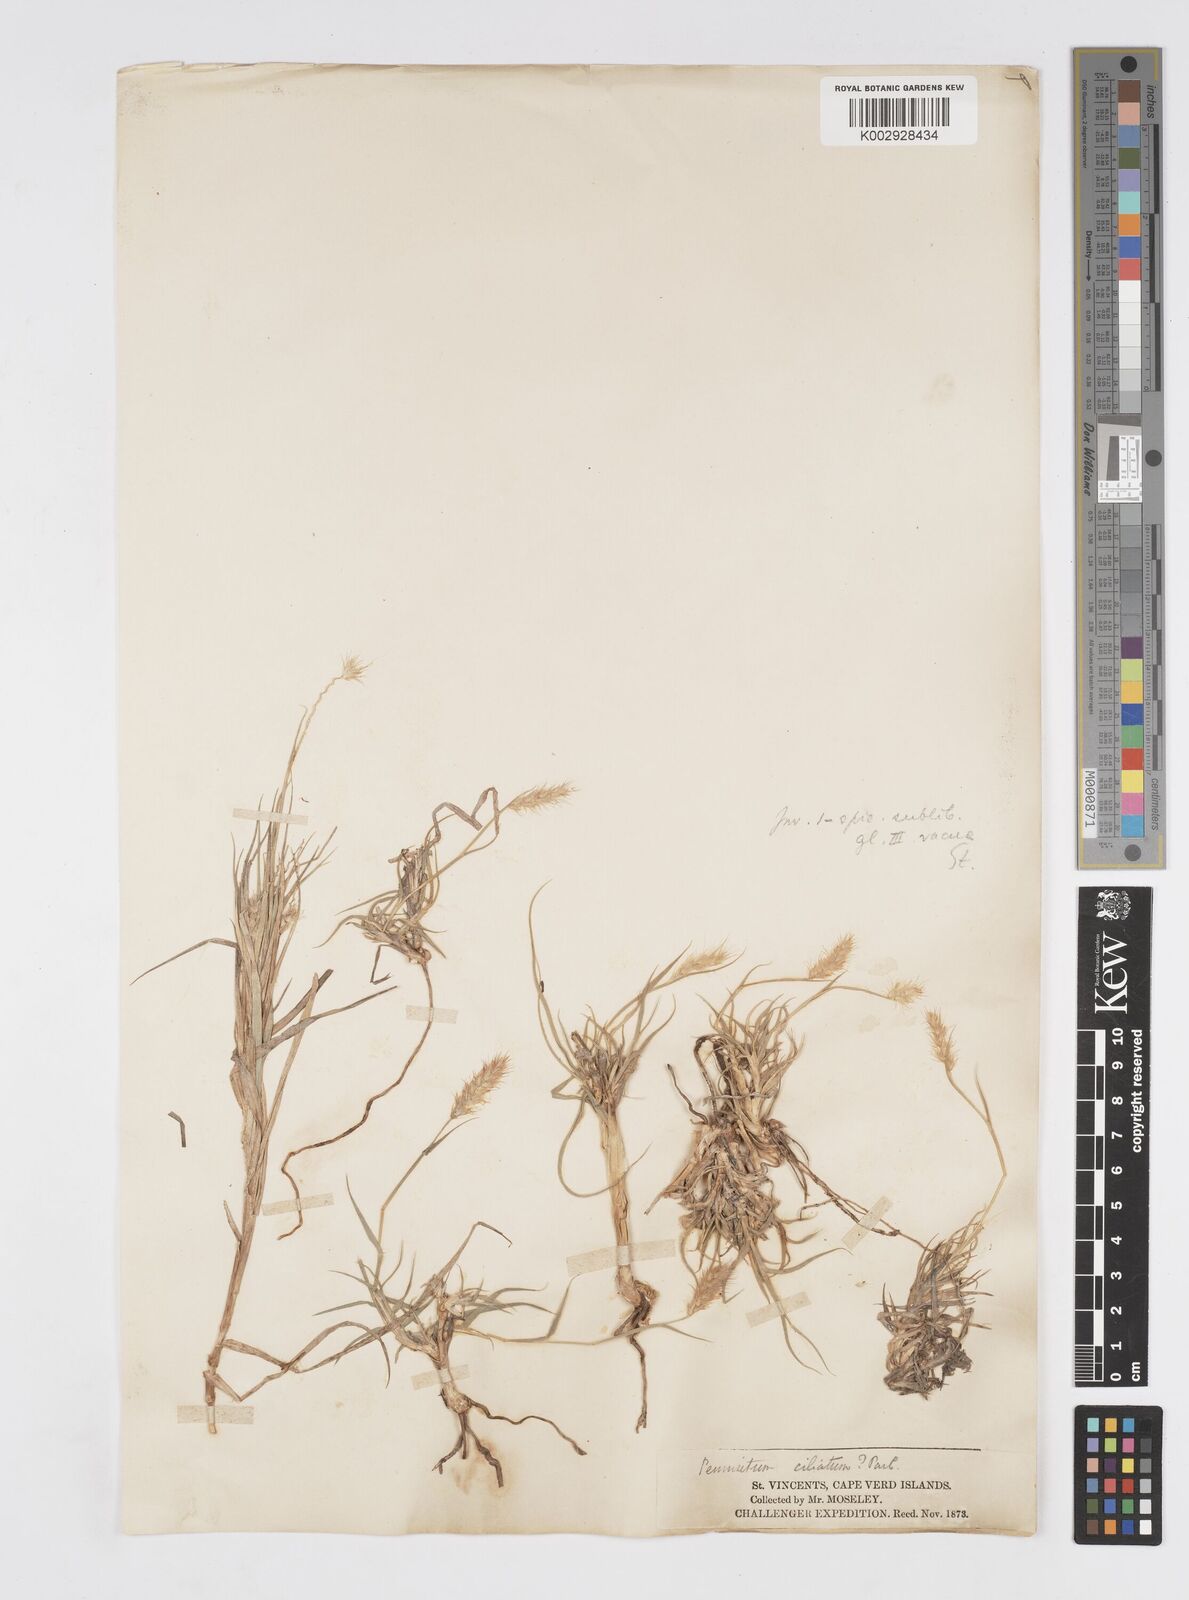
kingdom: Plantae
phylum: Tracheophyta
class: Liliopsida
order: Poales
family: Poaceae
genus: Cenchrus
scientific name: Cenchrus ciliaris
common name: Buffelgrass
